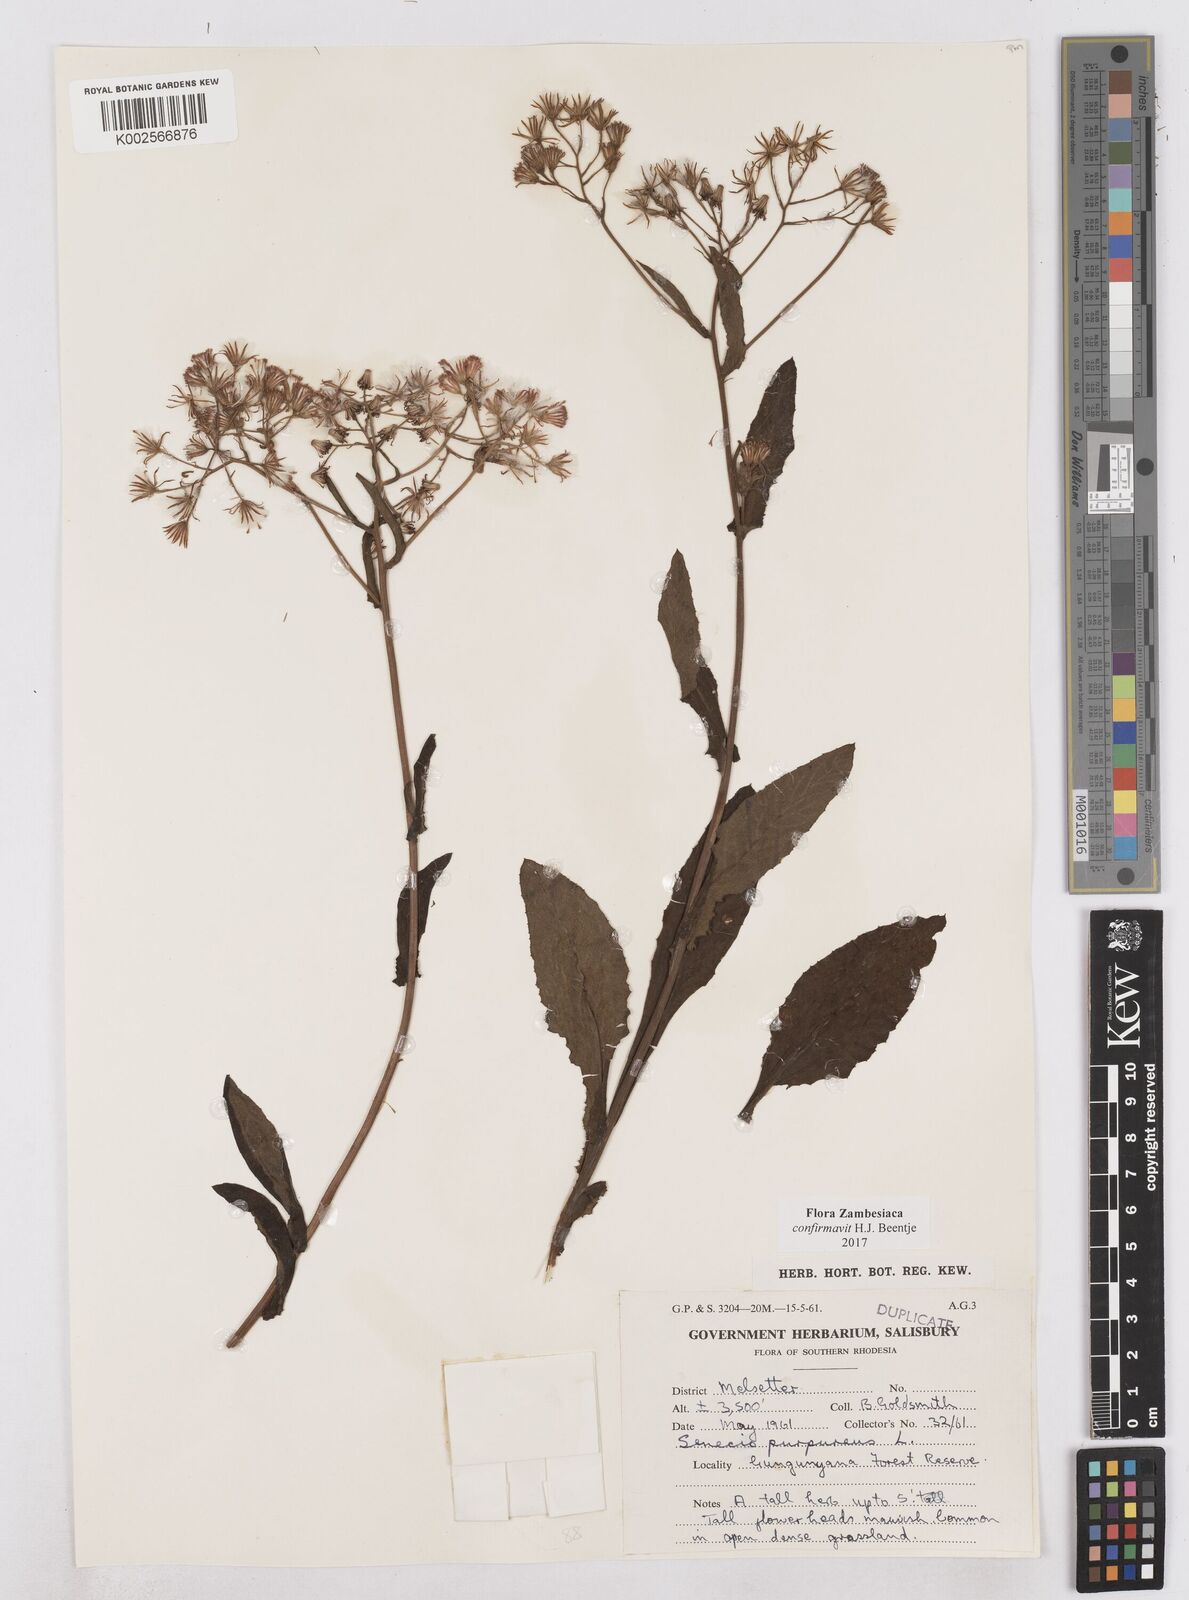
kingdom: Plantae
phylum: Tracheophyta
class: Magnoliopsida
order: Asterales
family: Asteraceae
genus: Senecio
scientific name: Senecio purpureus
